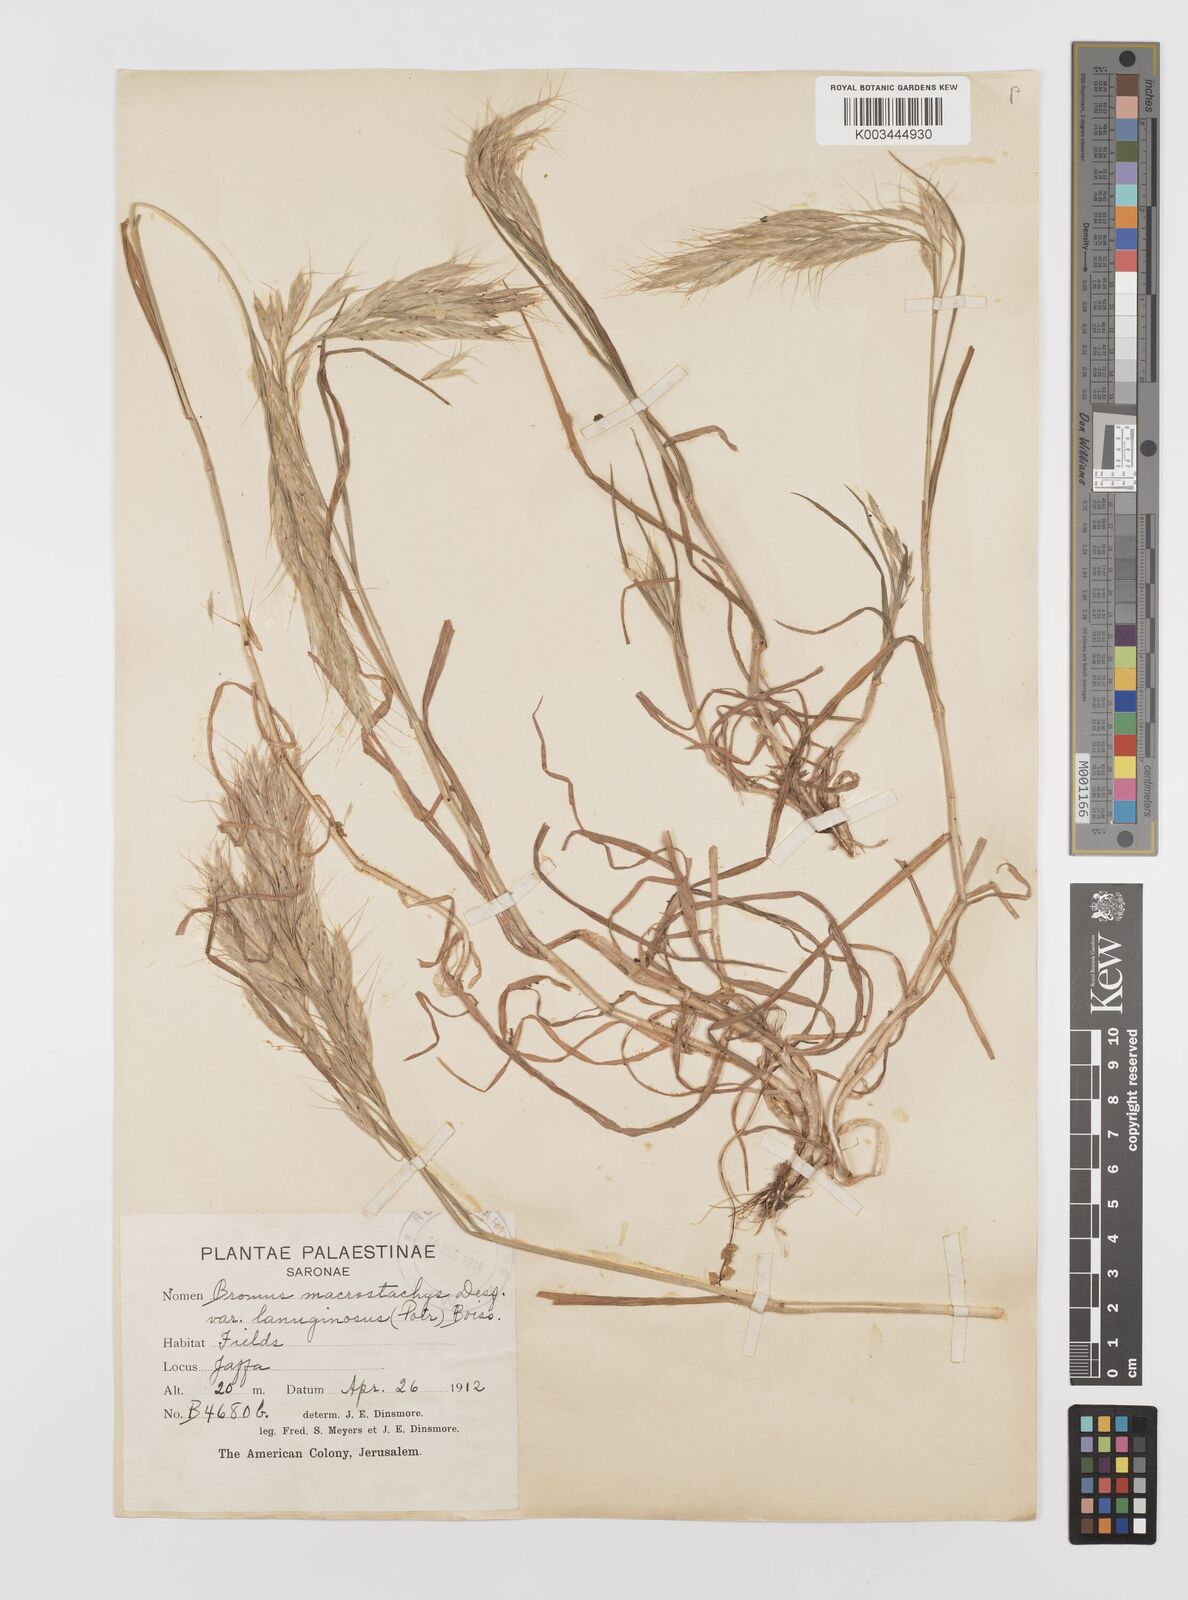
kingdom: Plantae
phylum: Tracheophyta
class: Liliopsida
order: Poales
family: Poaceae
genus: Bromus
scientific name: Bromus lanceolatus
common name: Mediterranean brome
